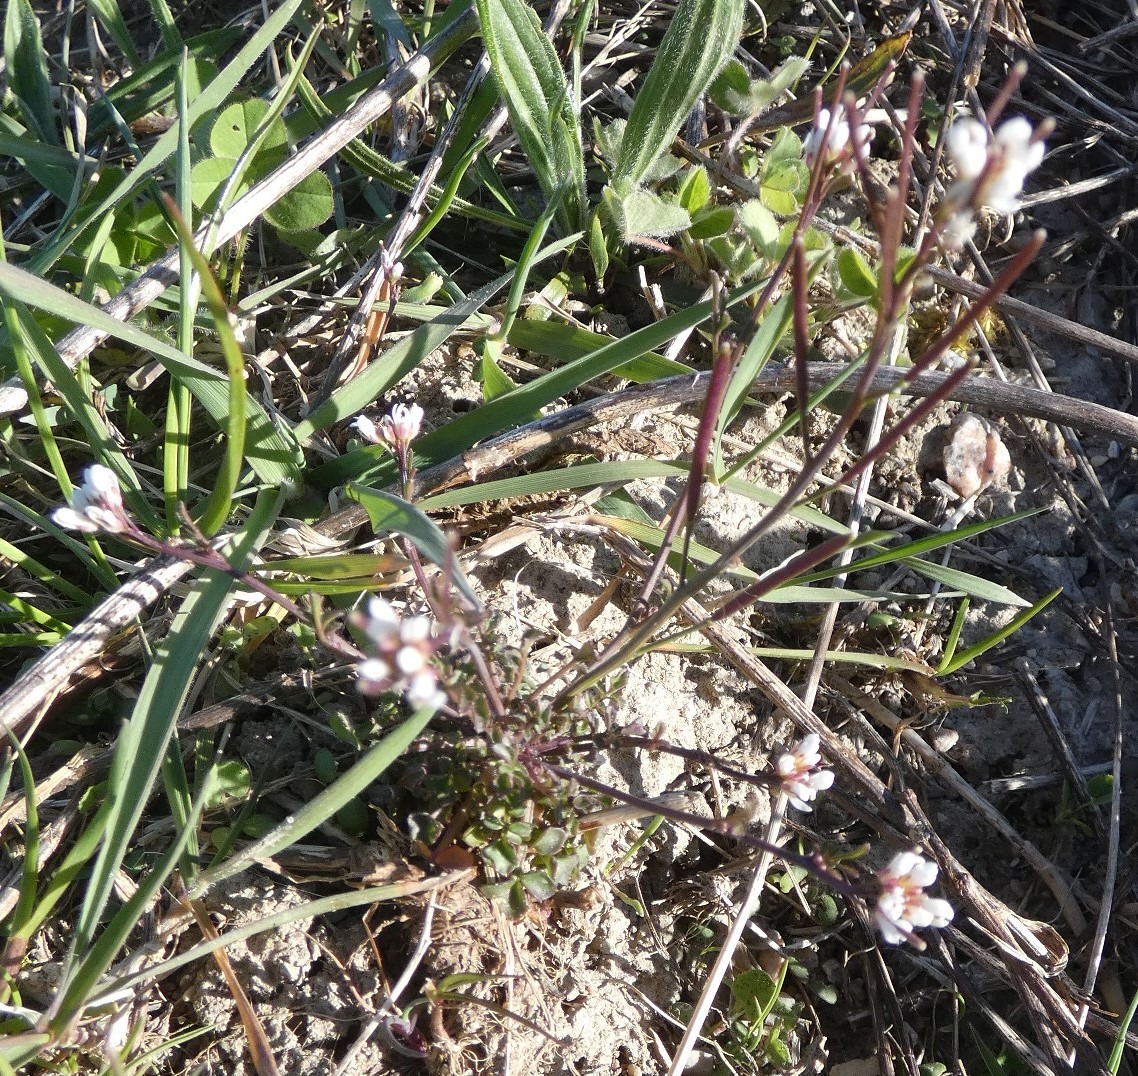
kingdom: Plantae
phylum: Tracheophyta
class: Magnoliopsida
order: Brassicales
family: Brassicaceae
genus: Cardamine
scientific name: Cardamine hirsuta
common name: Roset-springklap
